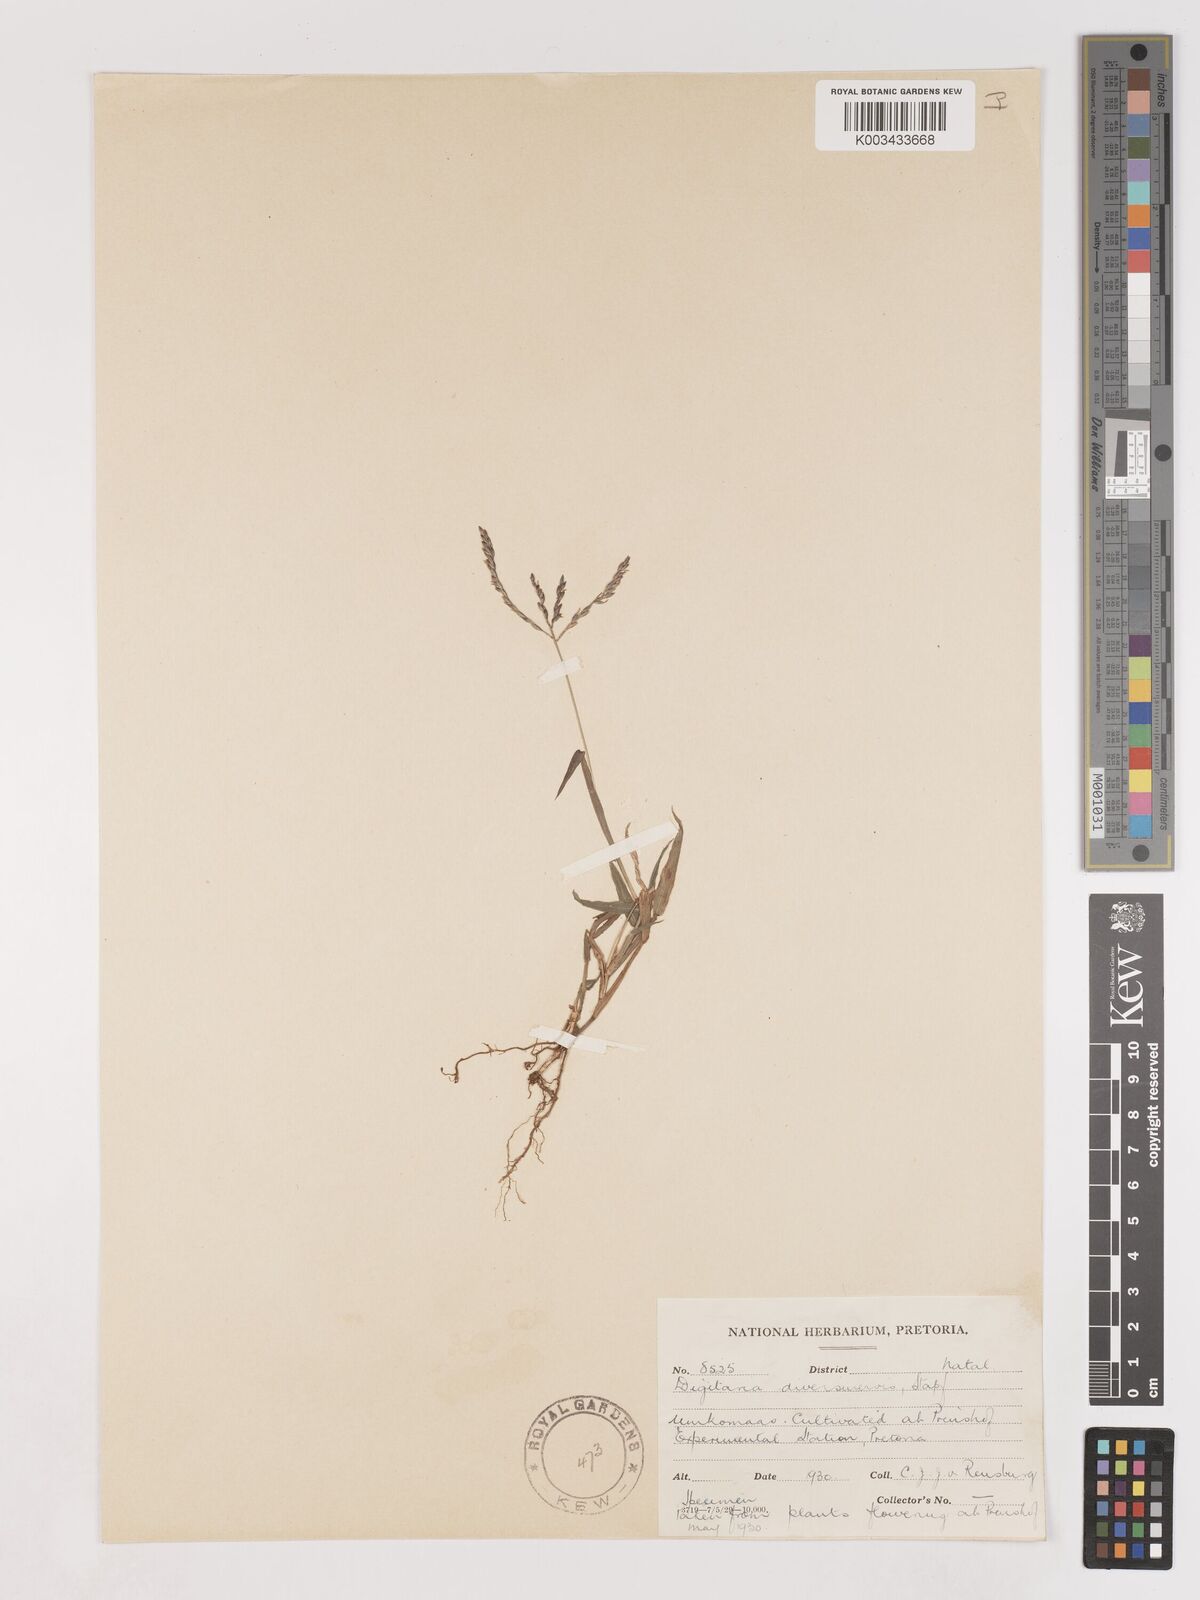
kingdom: Plantae
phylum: Tracheophyta
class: Liliopsida
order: Poales
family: Poaceae
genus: Digitaria
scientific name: Digitaria diversinervis
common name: Richmond finger grass
